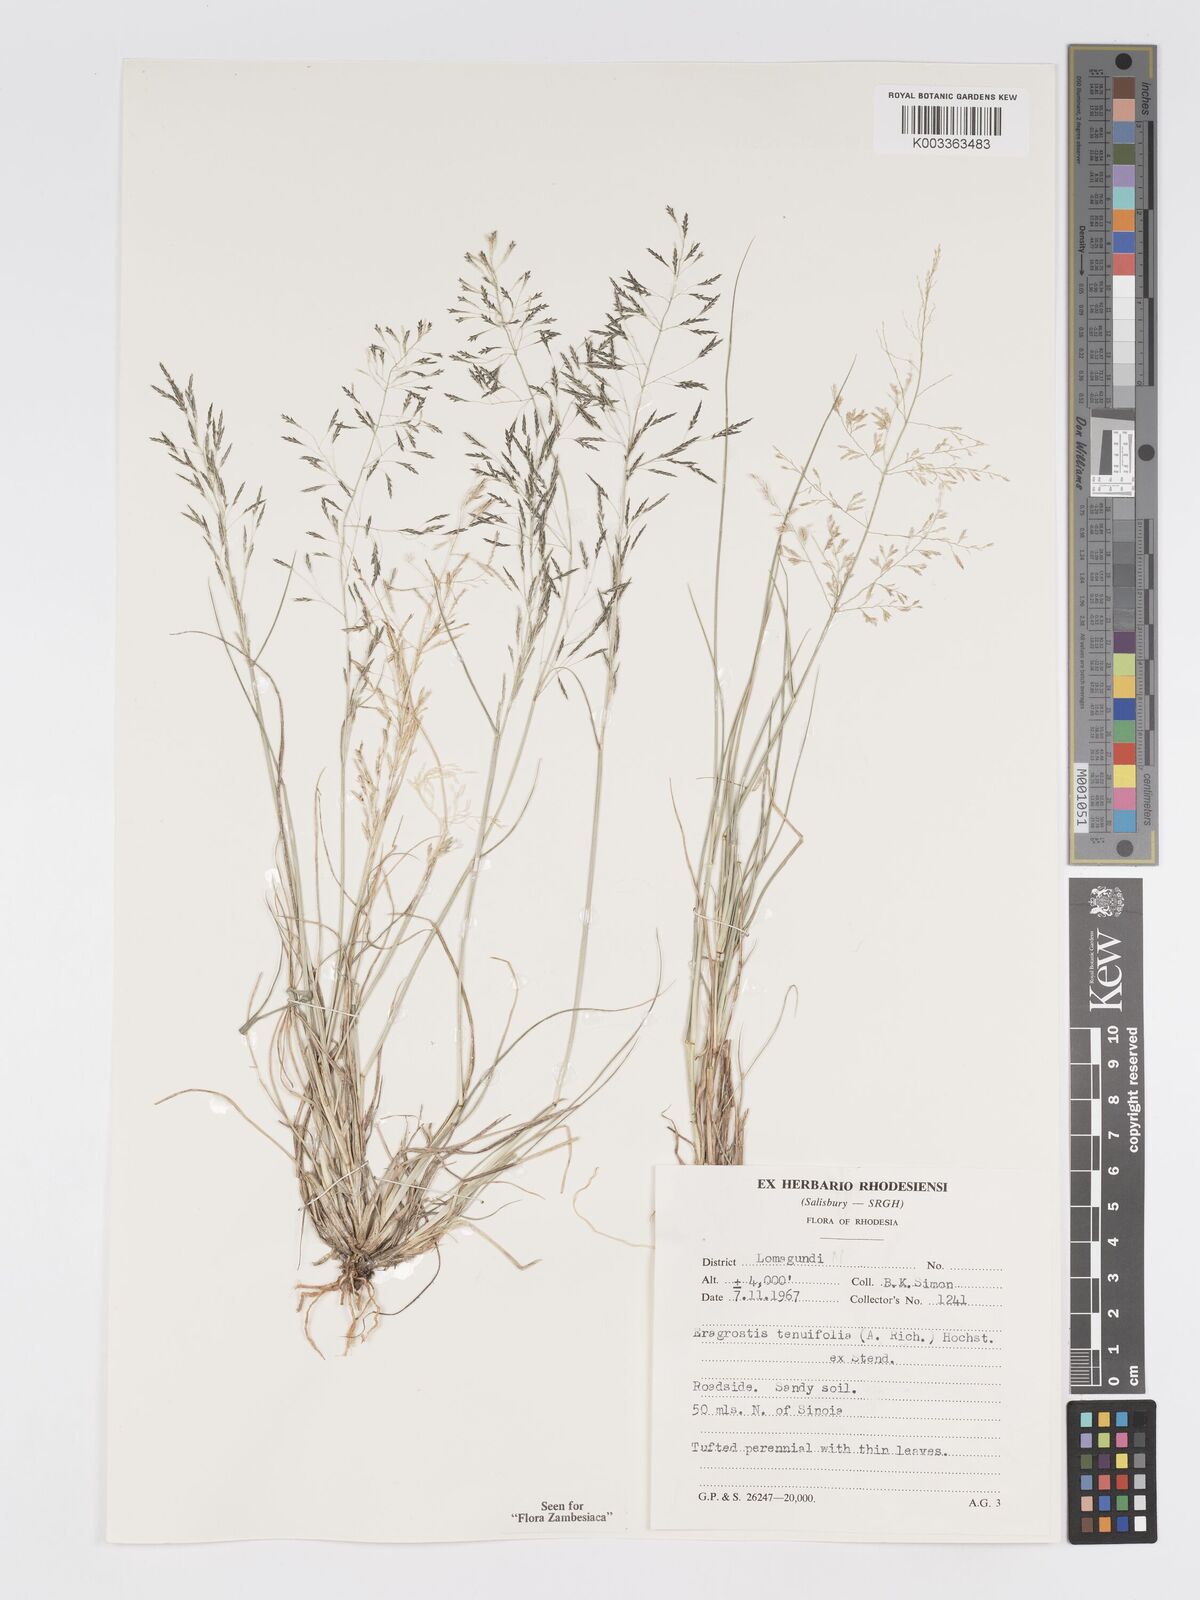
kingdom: Plantae
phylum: Tracheophyta
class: Liliopsida
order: Poales
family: Poaceae
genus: Eragrostis
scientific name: Eragrostis tenuifolia
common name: Elastic grass
